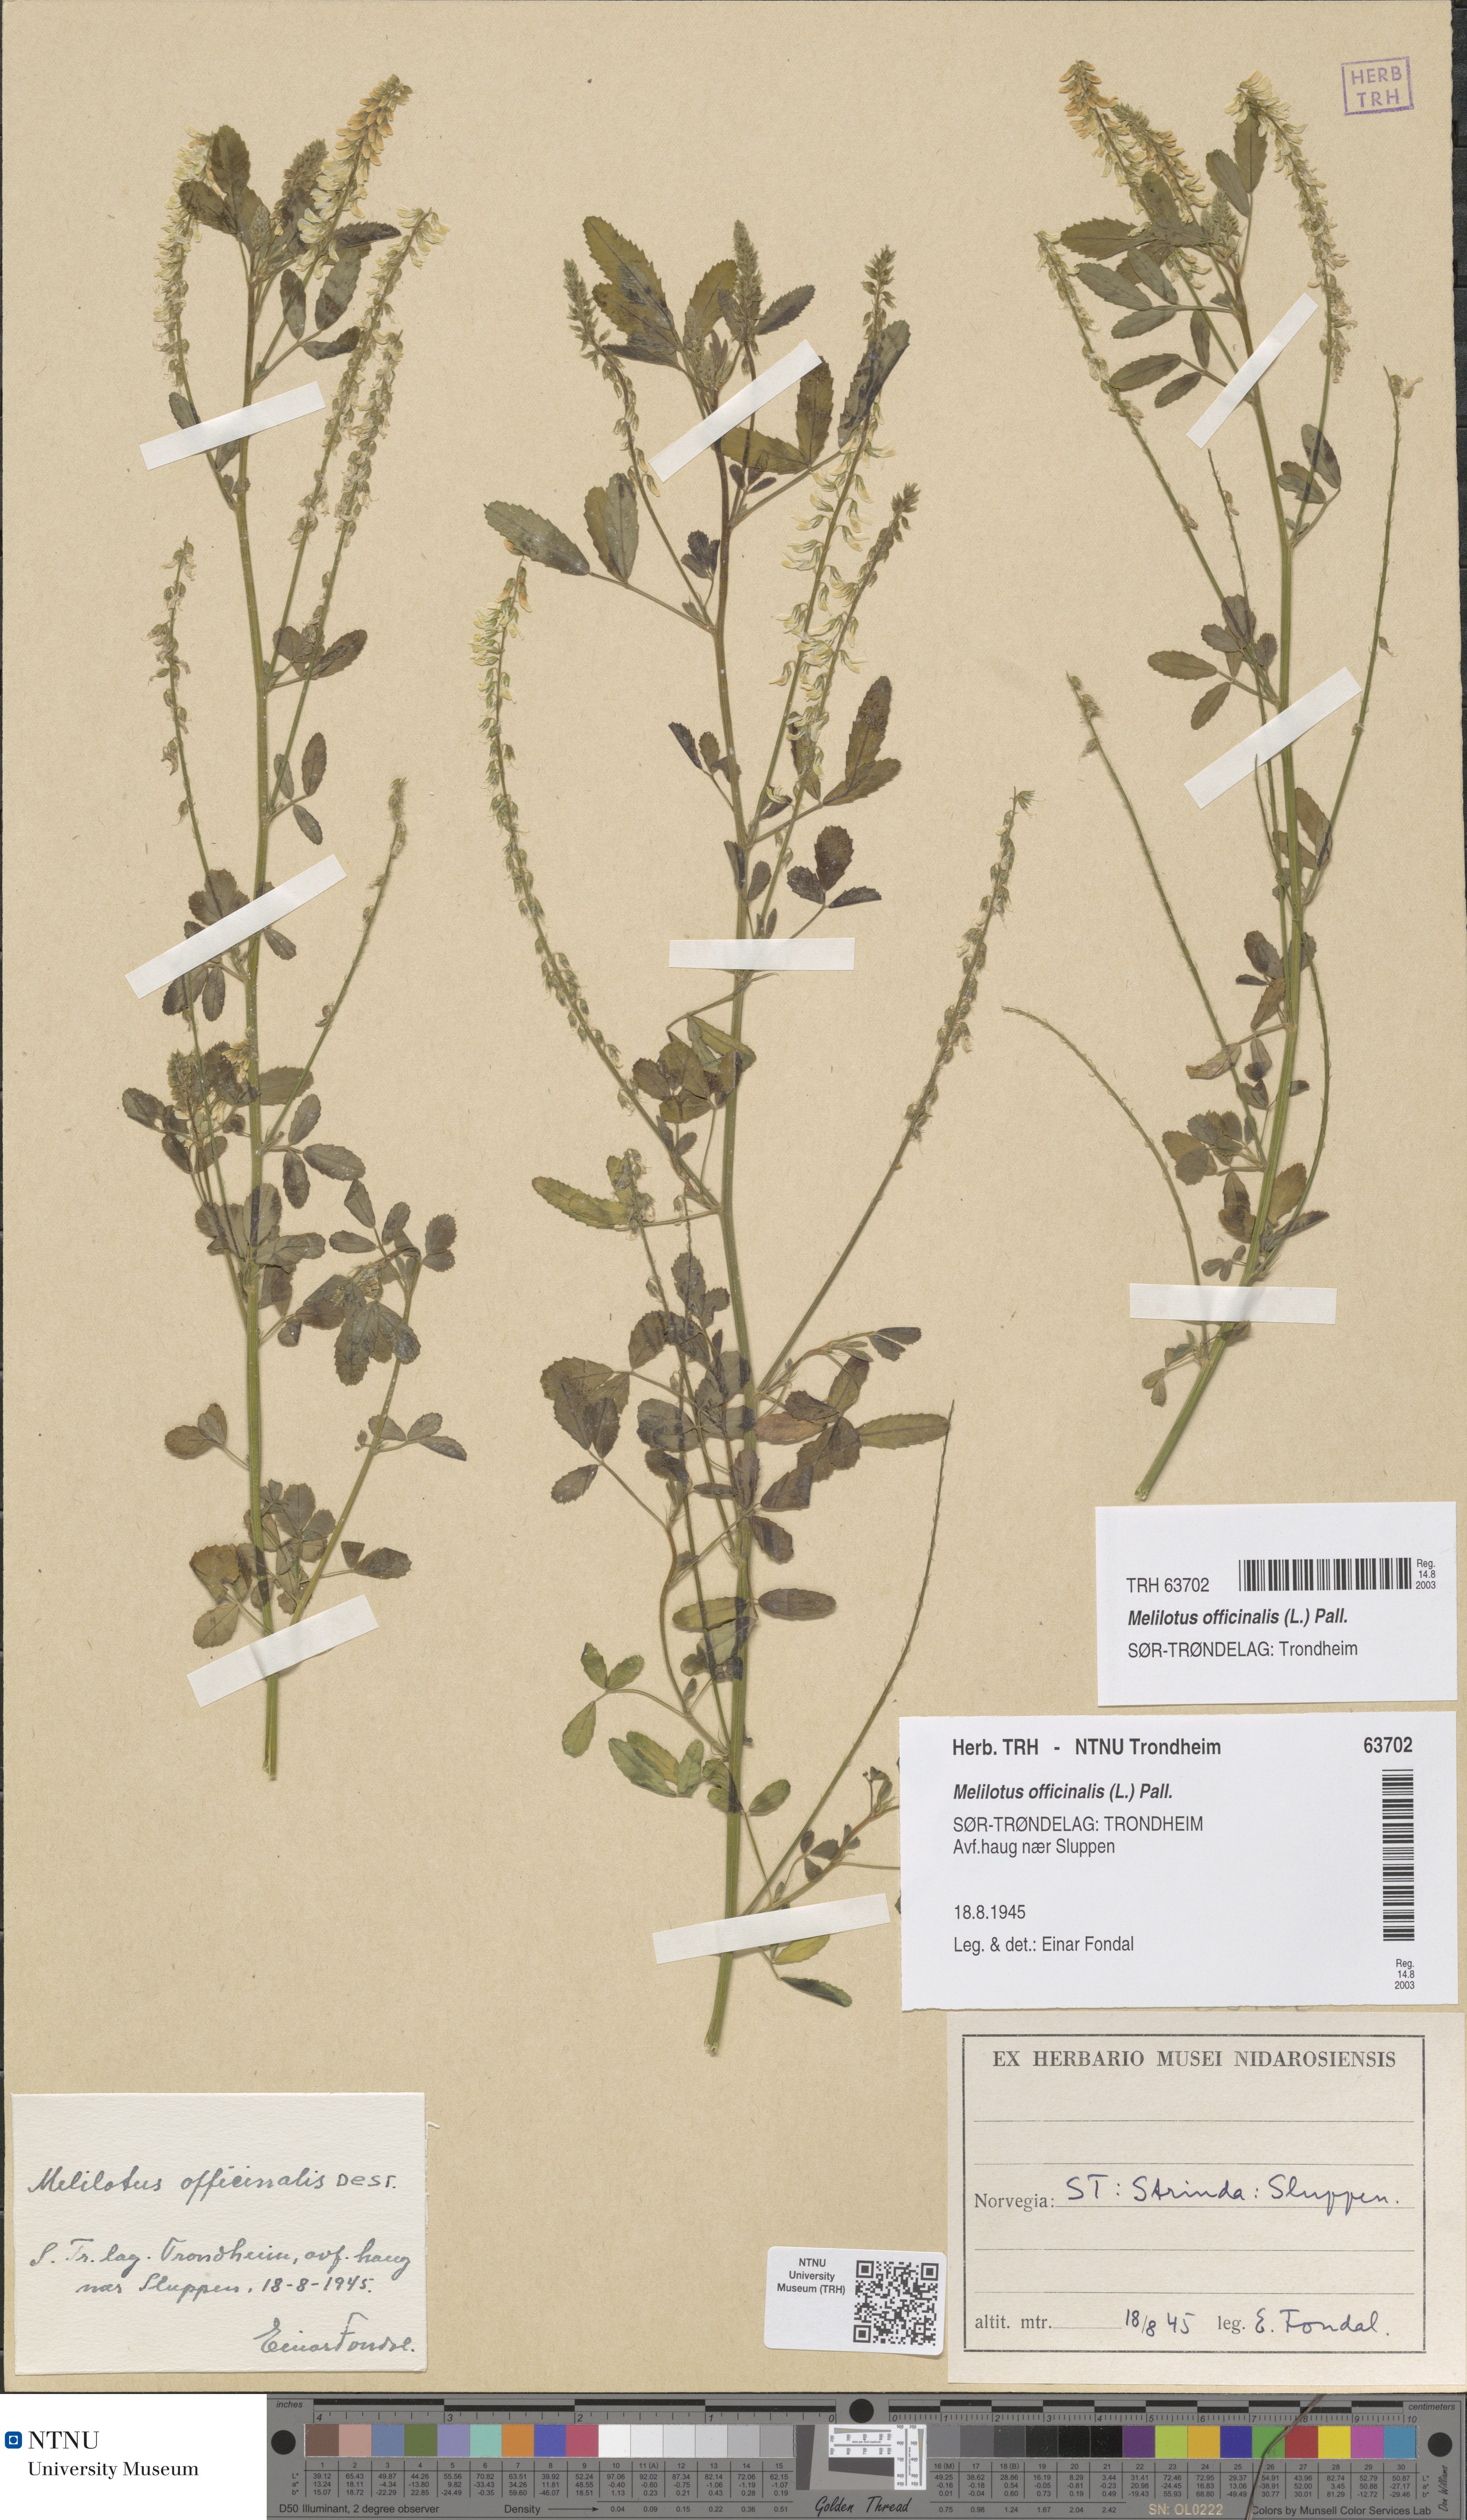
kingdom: Plantae
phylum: Tracheophyta
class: Magnoliopsida
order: Fabales
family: Fabaceae
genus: Melilotus
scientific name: Melilotus officinalis
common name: Sweetclover
